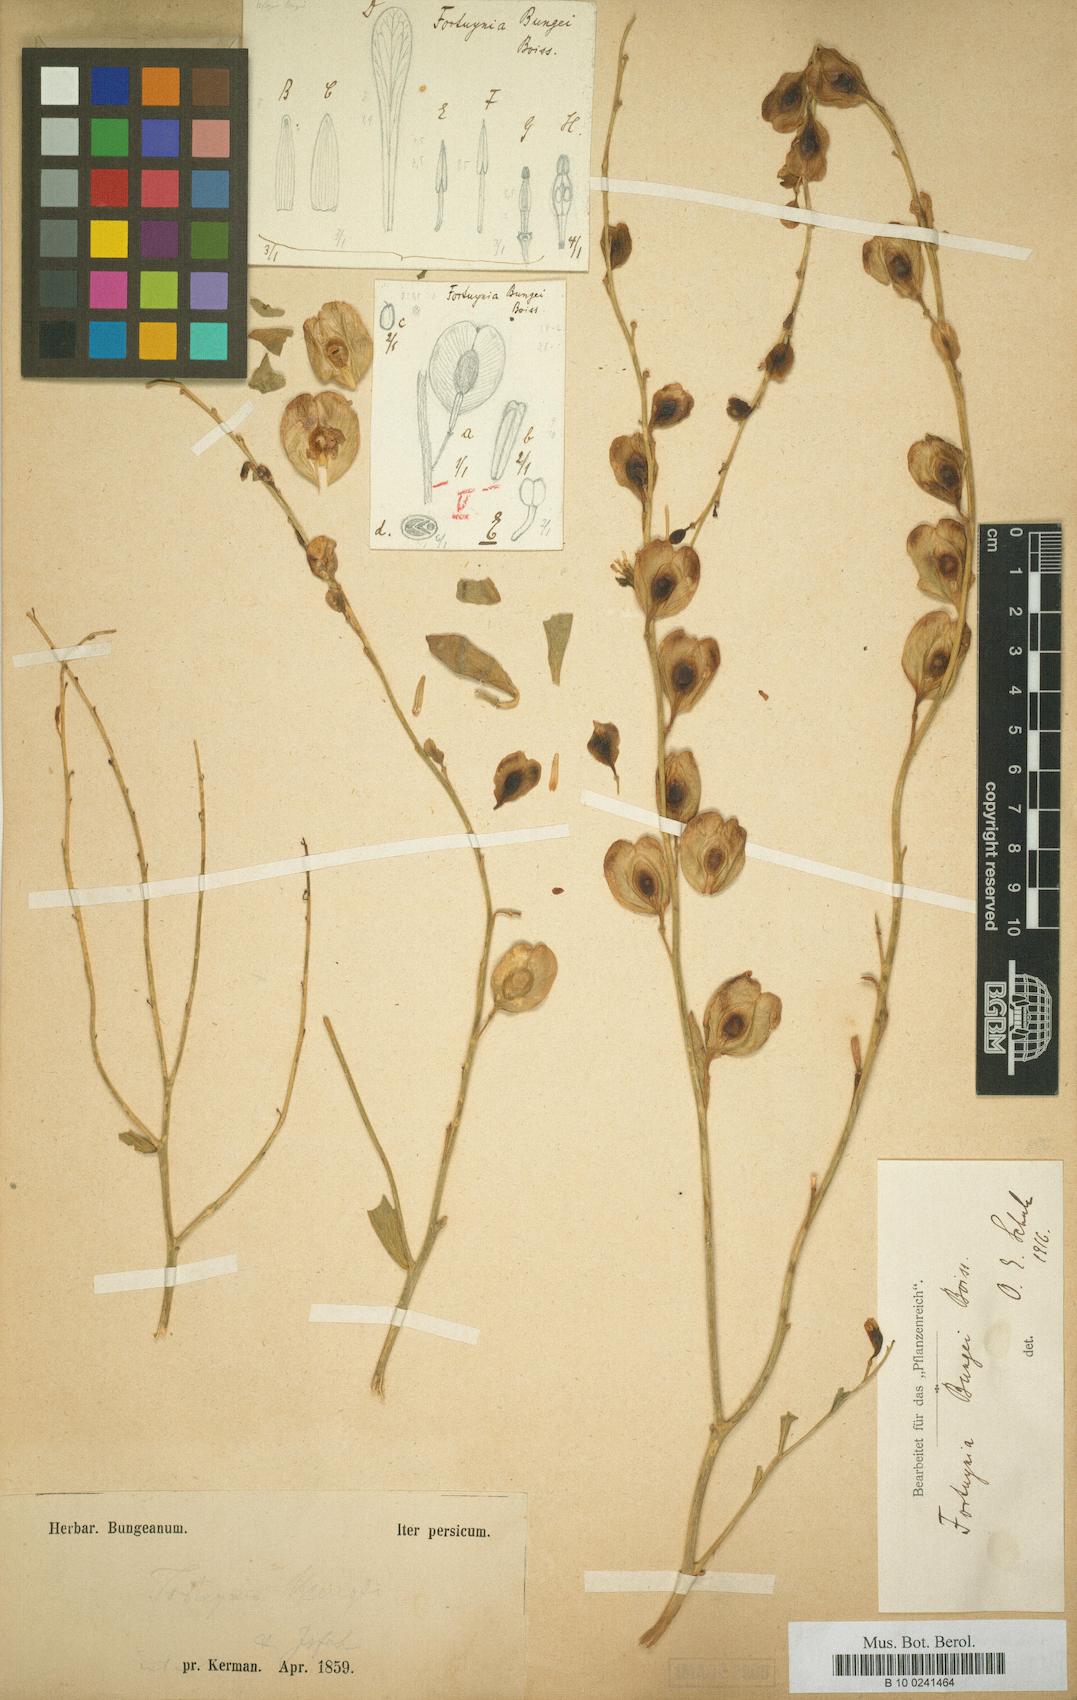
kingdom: Plantae
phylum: Tracheophyta
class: Magnoliopsida
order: Brassicales
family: Brassicaceae
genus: Fortuynia
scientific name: Fortuynia bungei
